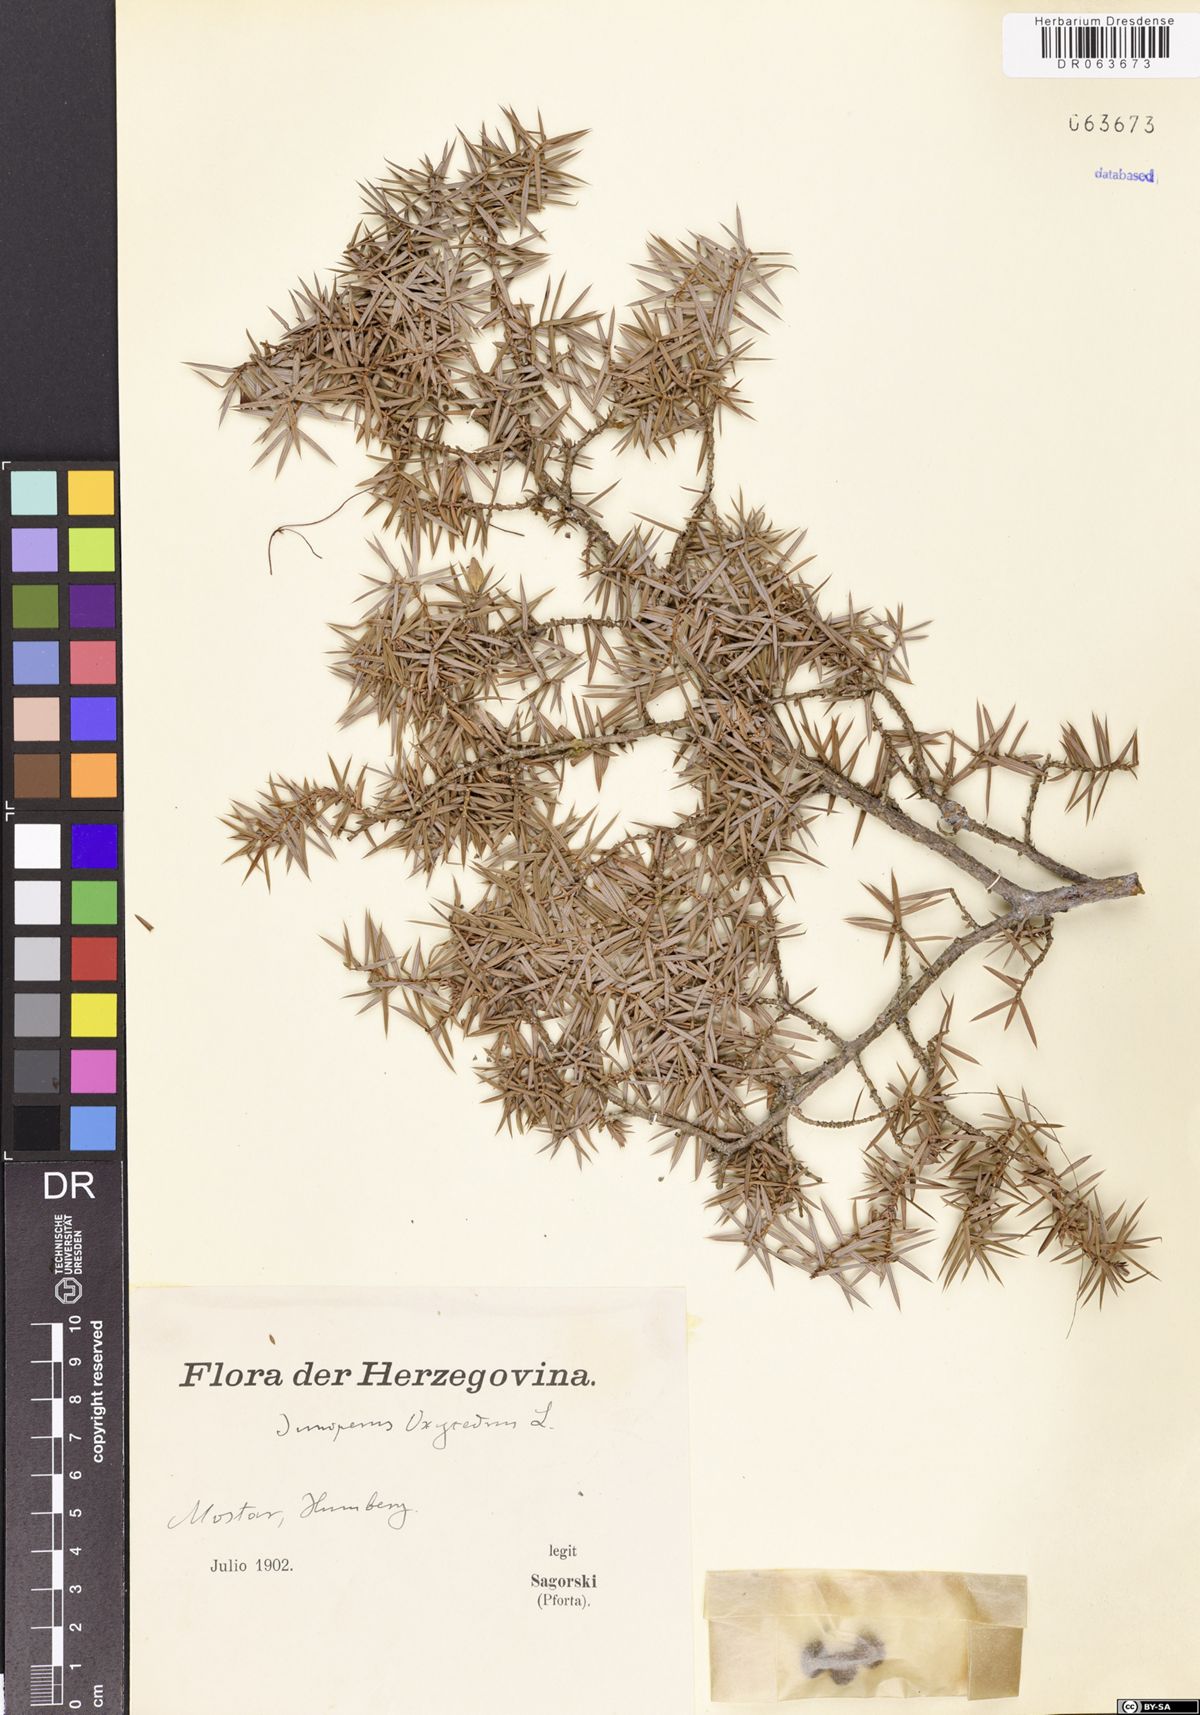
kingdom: Plantae
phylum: Tracheophyta
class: Pinopsida
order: Pinales
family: Cupressaceae
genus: Juniperus
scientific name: Juniperus oxycedrus
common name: Prickly juniper
